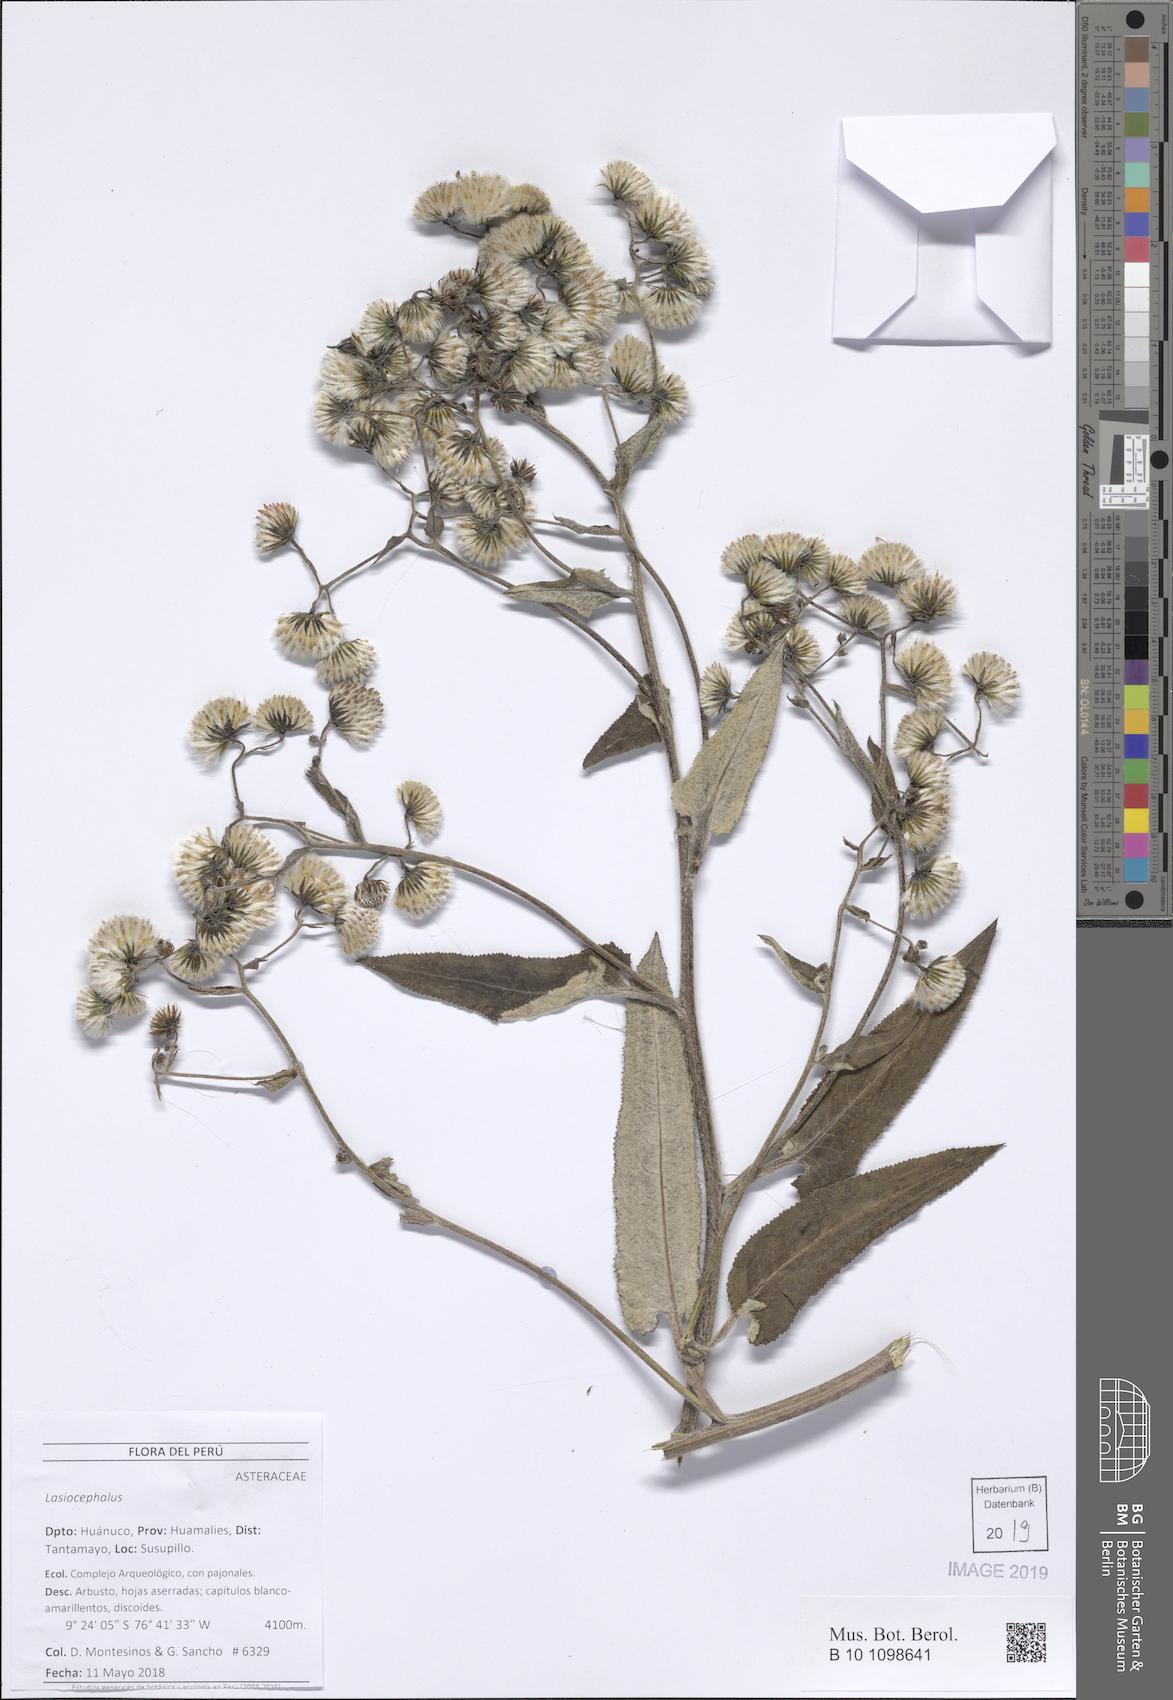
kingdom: Plantae
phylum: Tracheophyta
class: Magnoliopsida
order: Asterales
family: Asteraceae
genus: Lasiocephalus
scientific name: Lasiocephalus
